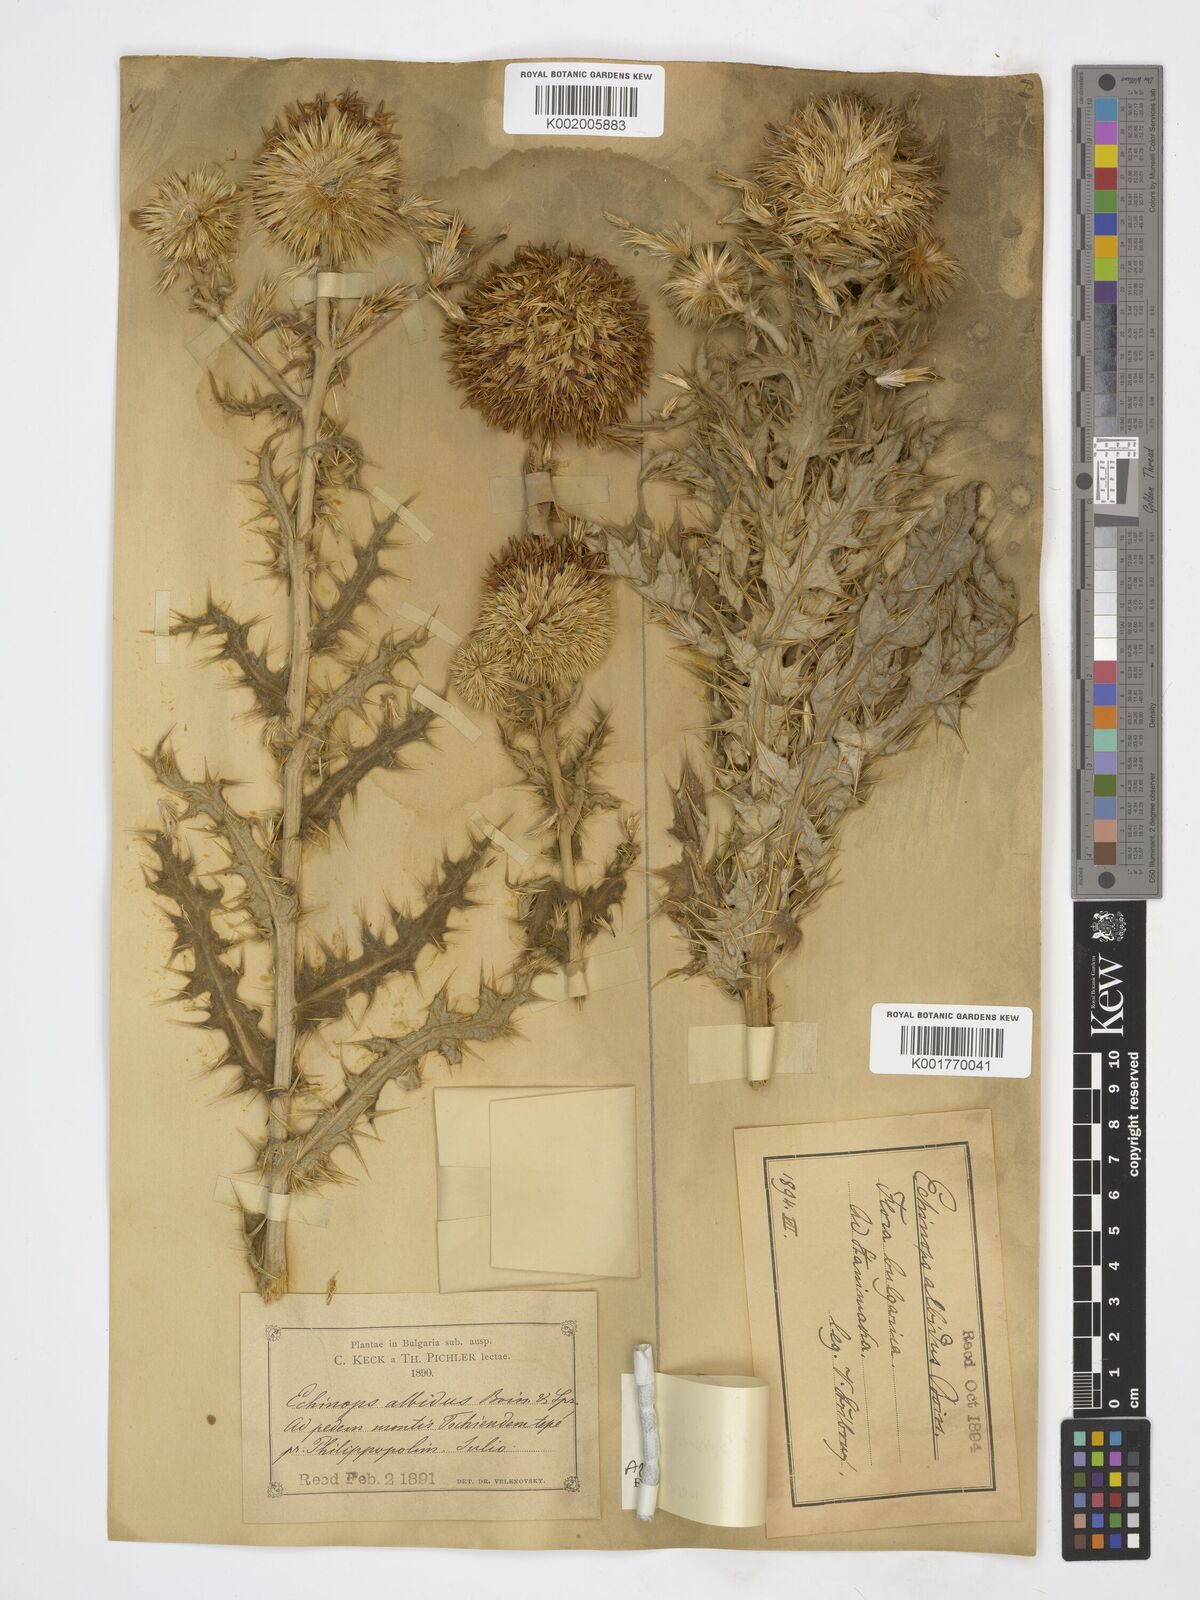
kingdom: Plantae
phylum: Tracheophyta
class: Magnoliopsida
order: Asterales
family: Asteraceae
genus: Echinops
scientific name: Echinops sphaerocephalus
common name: Glandular globe-thistle
